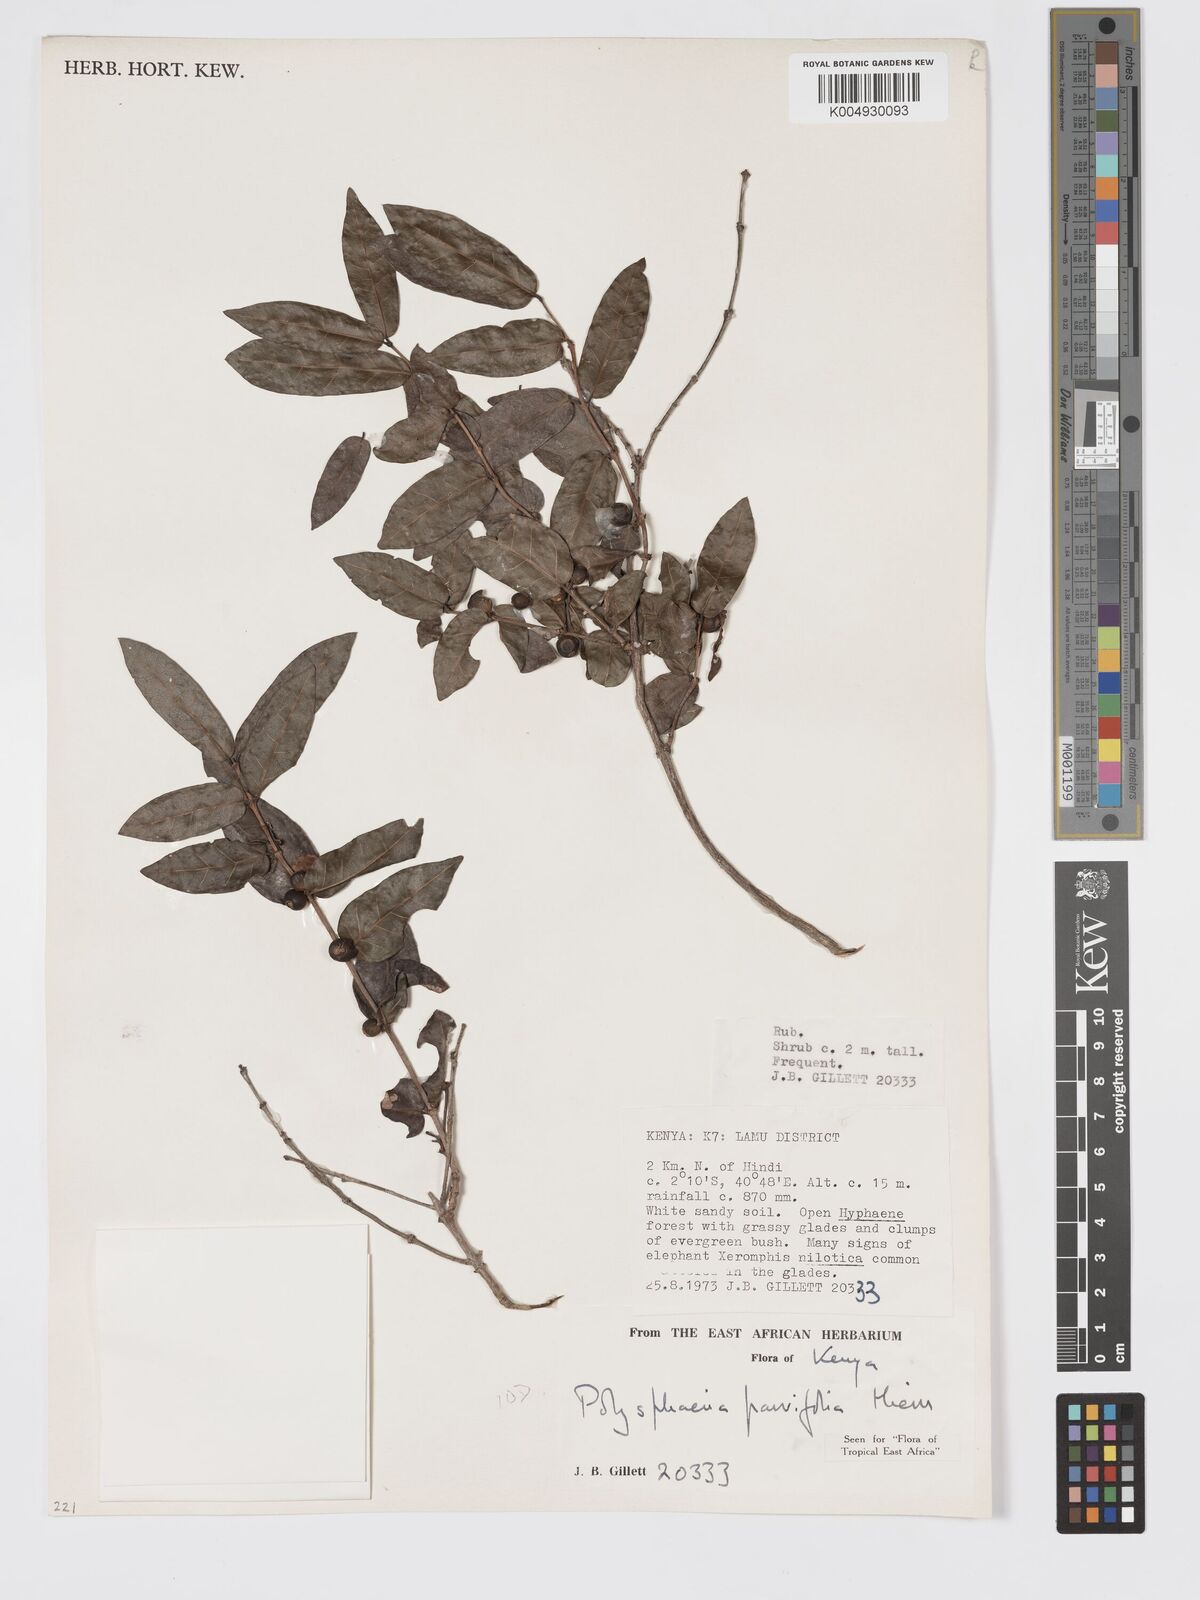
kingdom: Plantae
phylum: Tracheophyta
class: Magnoliopsida
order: Gentianales
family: Rubiaceae
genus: Eumachia
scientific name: Eumachia parviflora
